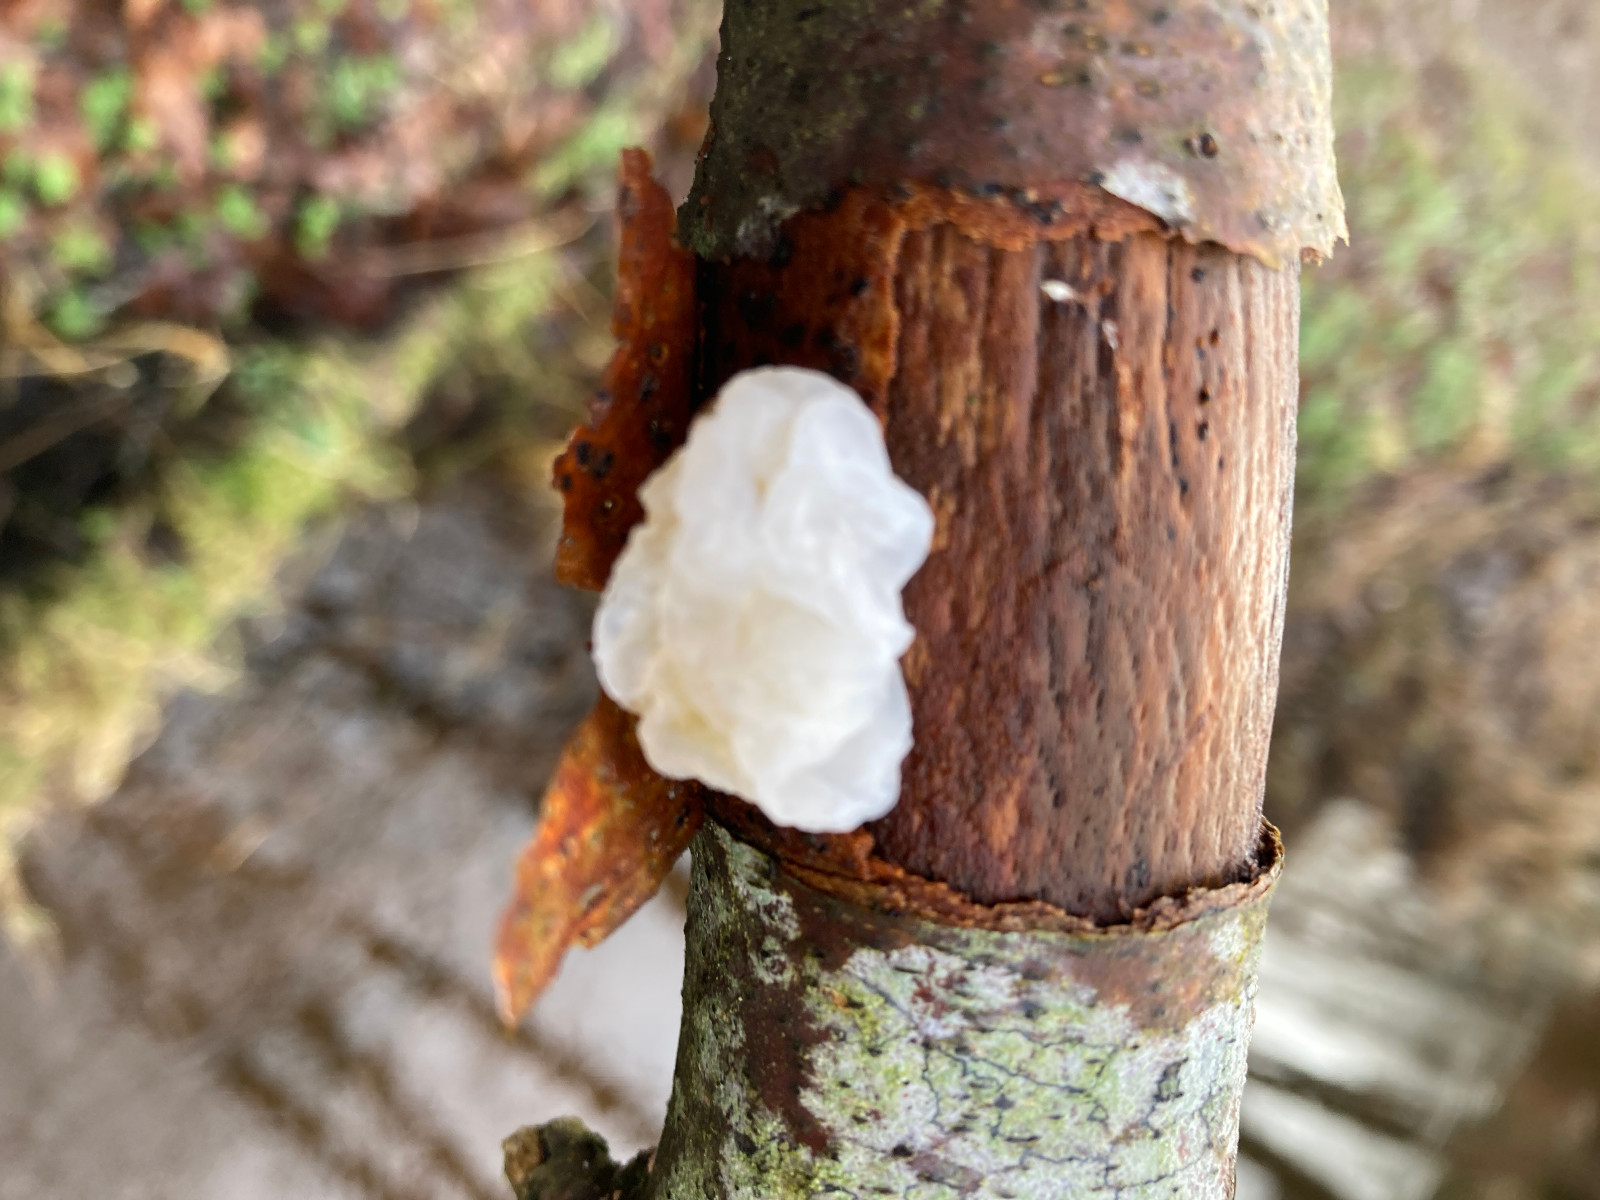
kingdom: Fungi
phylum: Basidiomycota
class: Agaricomycetes
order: Auriculariales
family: Auriculariaceae
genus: Exidia
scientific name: Exidia thuretiana
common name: hvidlig bævretop
